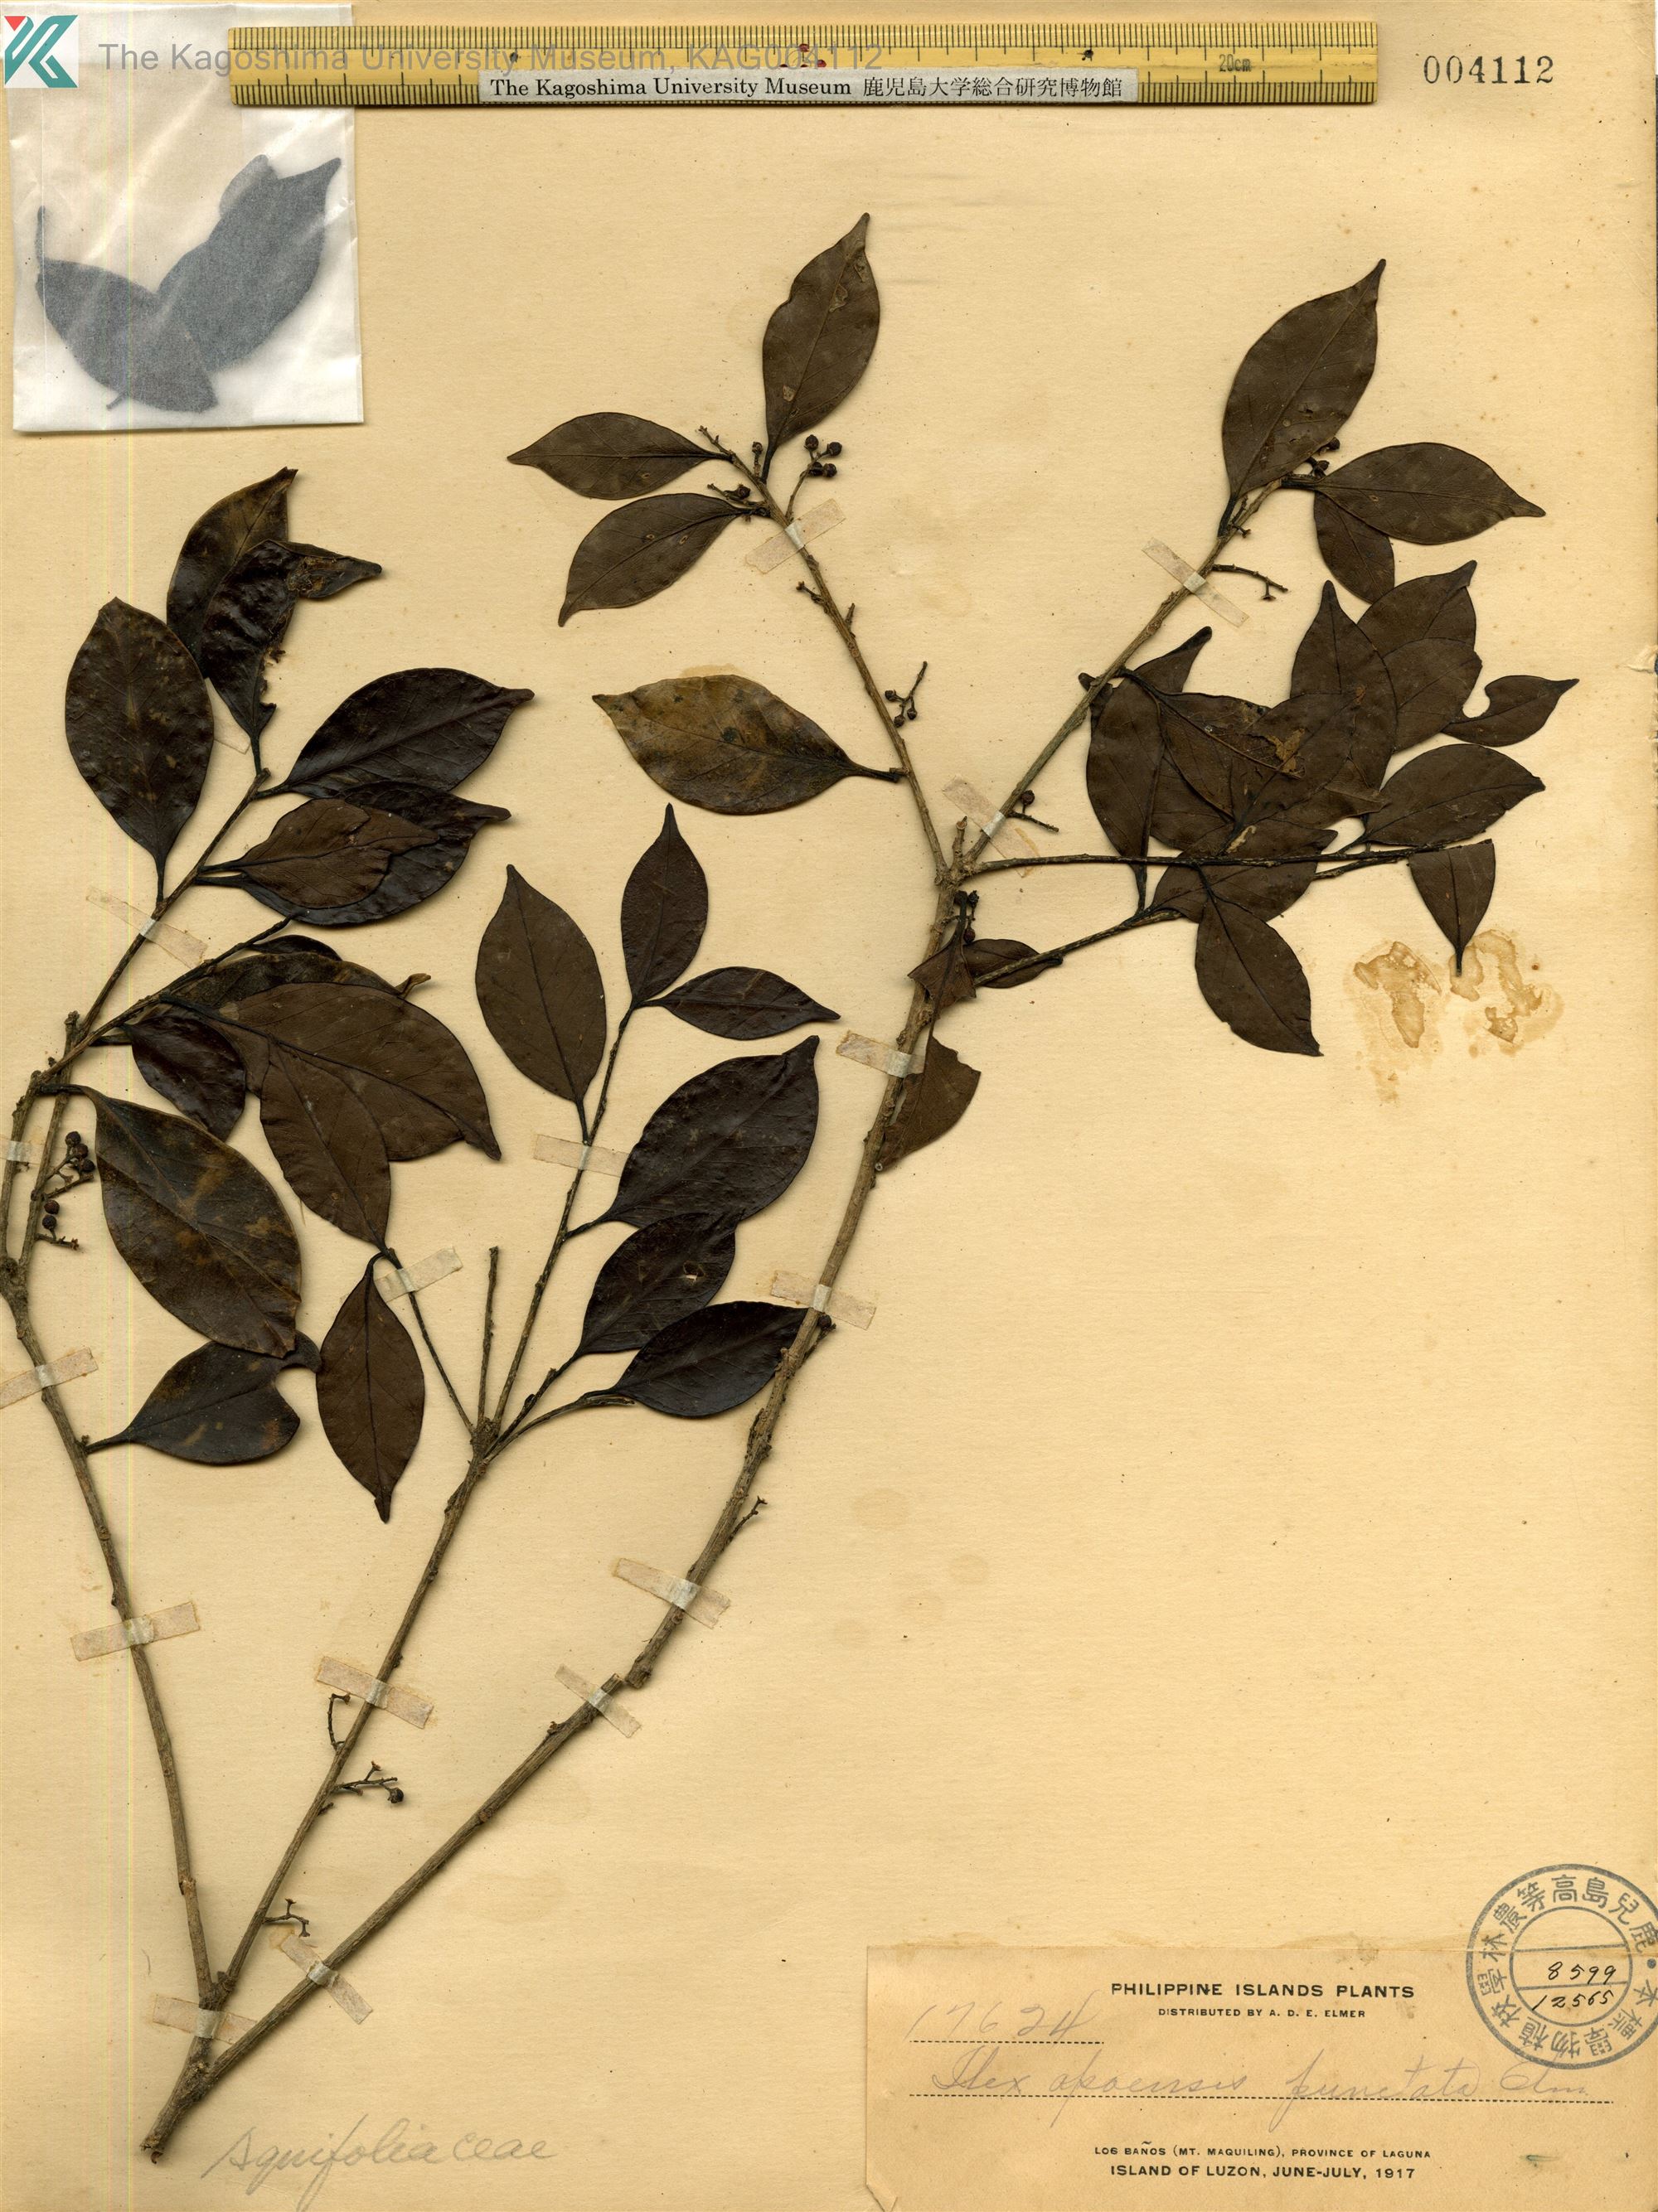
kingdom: Plantae
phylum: Tracheophyta
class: Magnoliopsida
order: Aquifoliales
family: Aquifoliaceae
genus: Ilex
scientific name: Ilex
